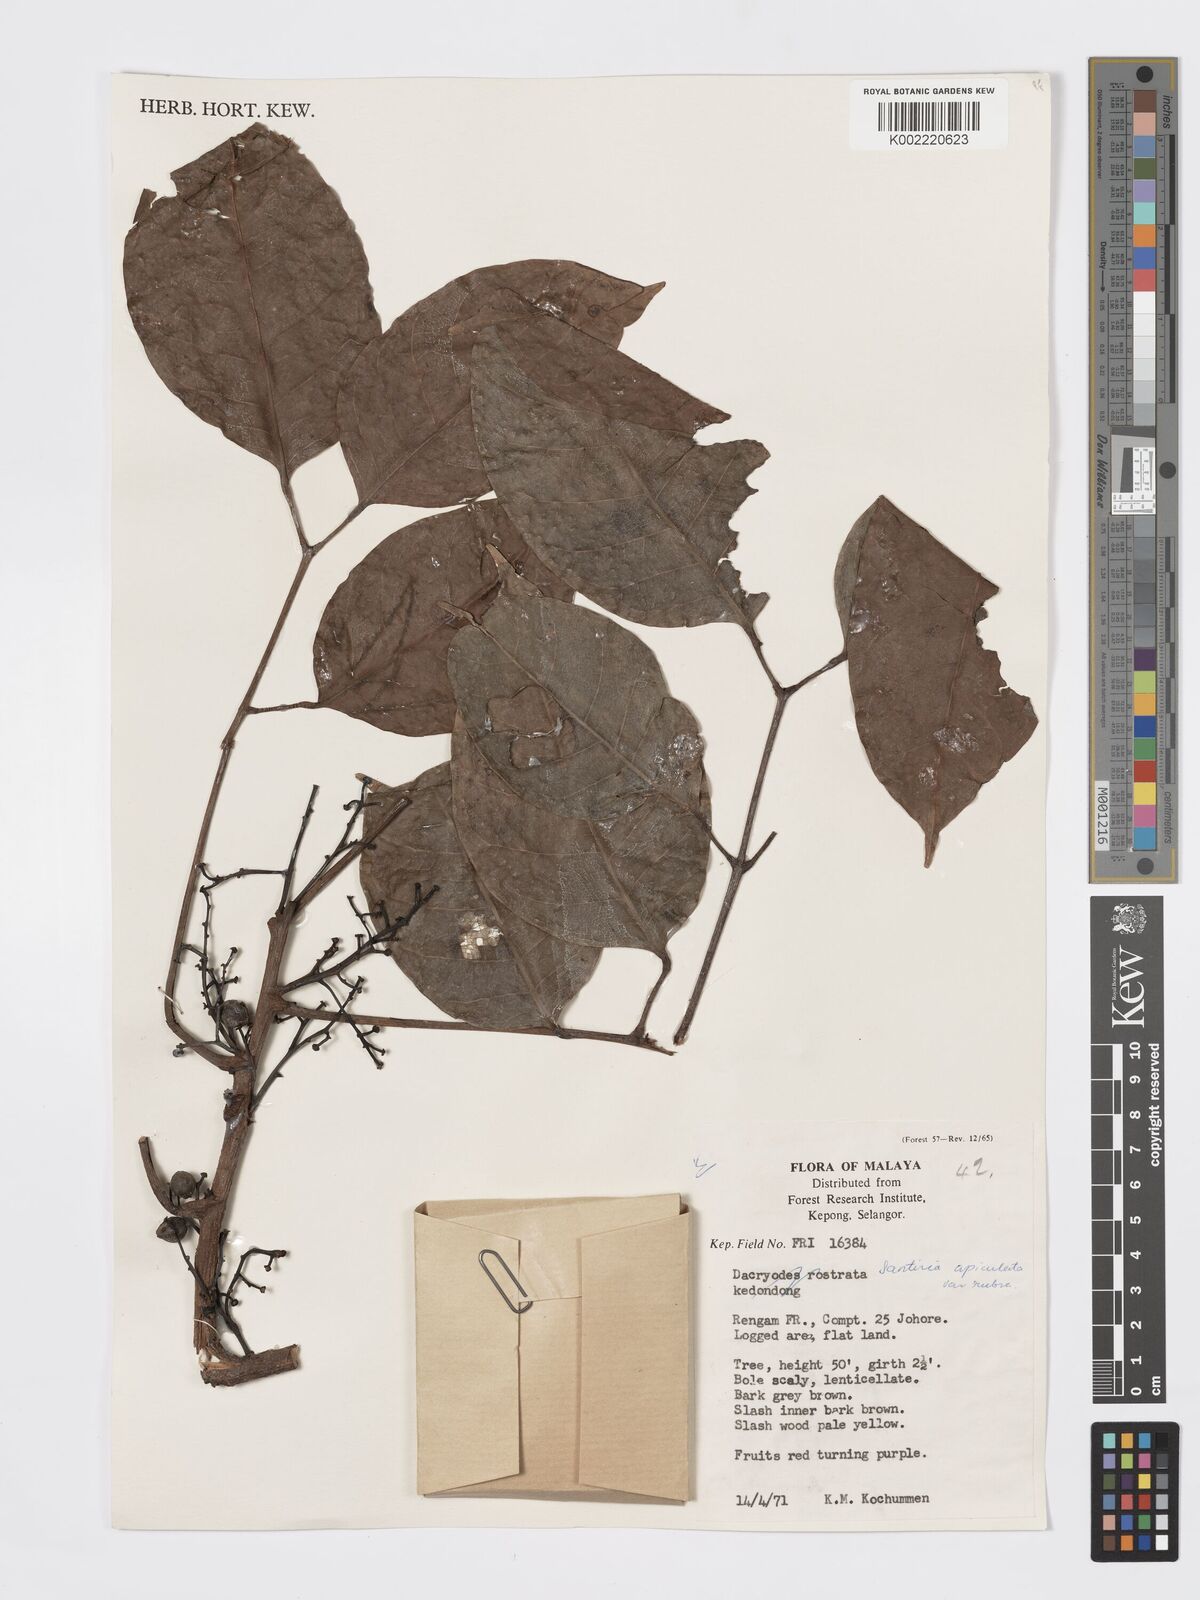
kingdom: Plantae
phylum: Tracheophyta
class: Magnoliopsida
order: Sapindales
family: Burseraceae
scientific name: Burseraceae
